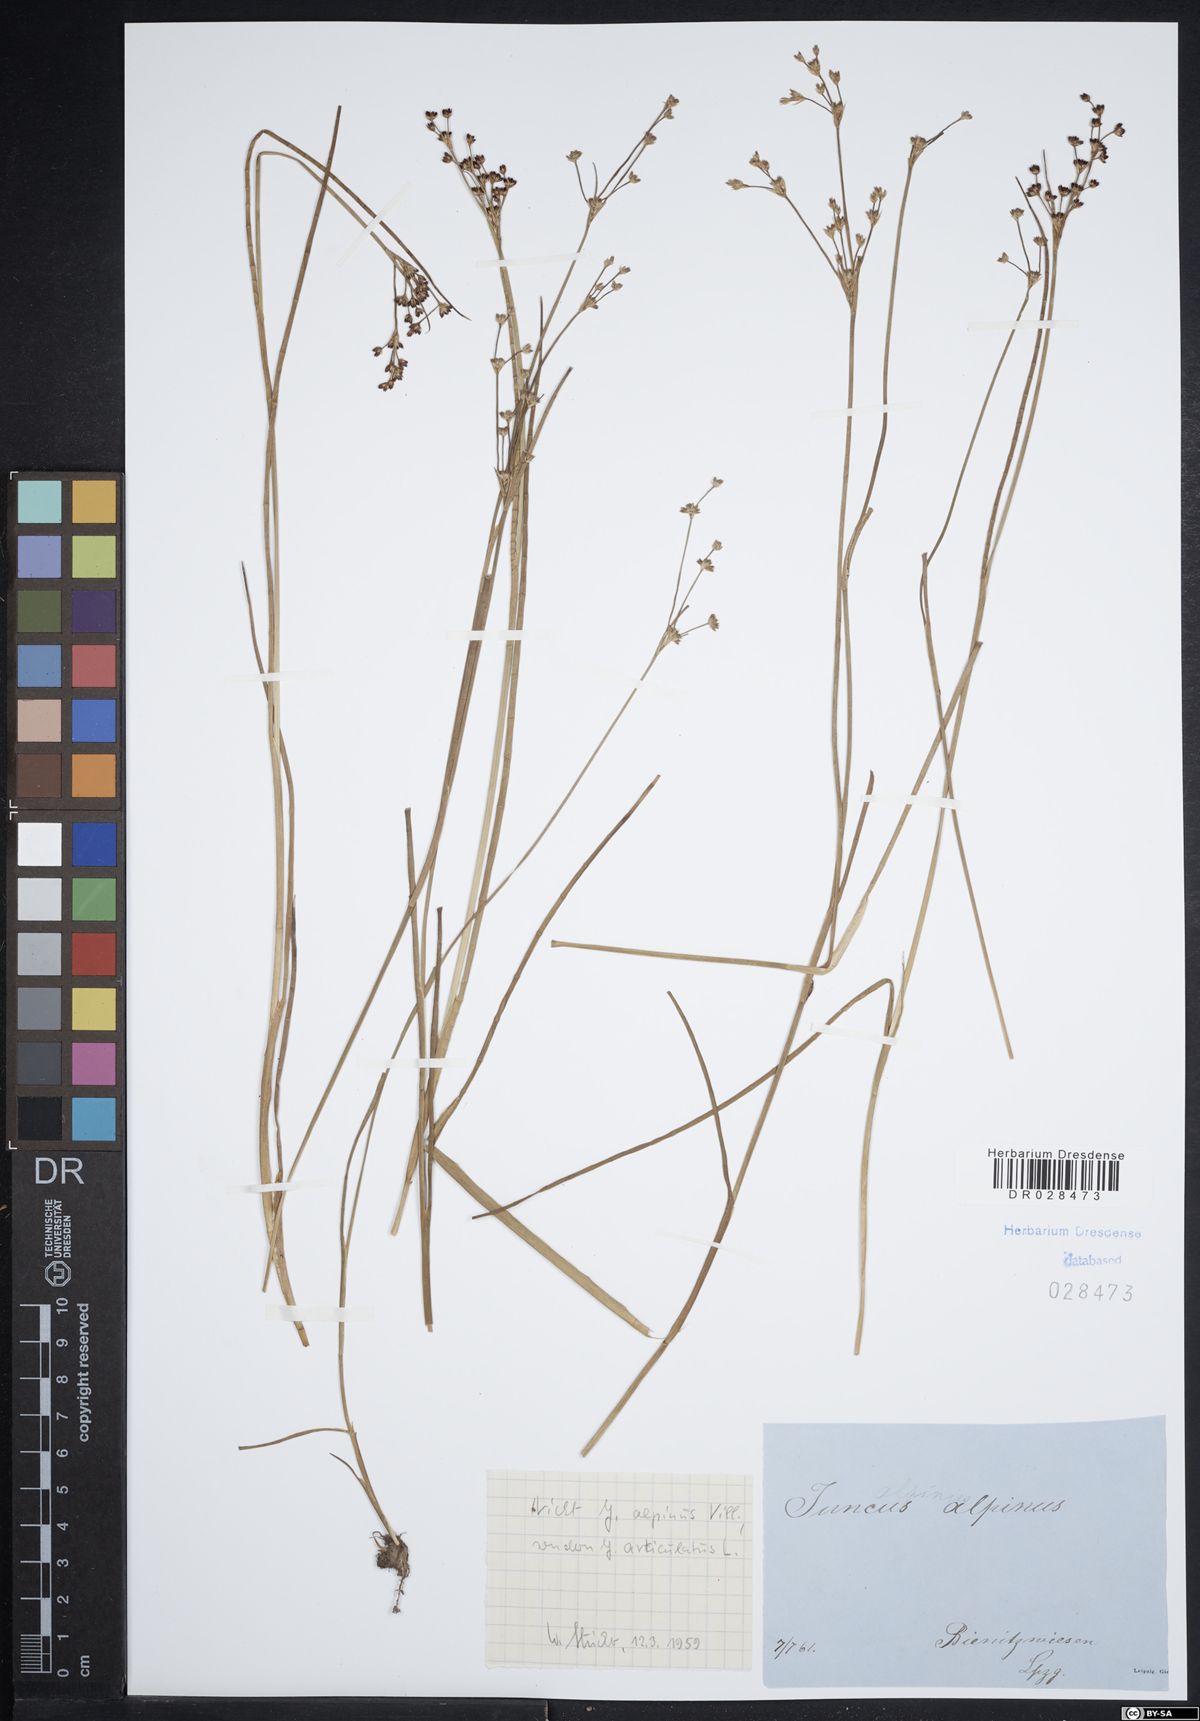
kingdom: Plantae
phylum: Tracheophyta
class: Liliopsida
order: Poales
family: Juncaceae
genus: Juncus
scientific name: Juncus articulatus
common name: Jointed rush
